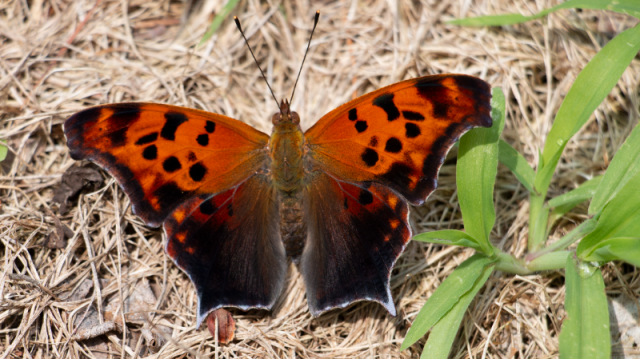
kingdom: Animalia
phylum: Arthropoda
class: Insecta
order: Lepidoptera
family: Nymphalidae
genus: Polygonia
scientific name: Polygonia interrogationis
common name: Question Mark
